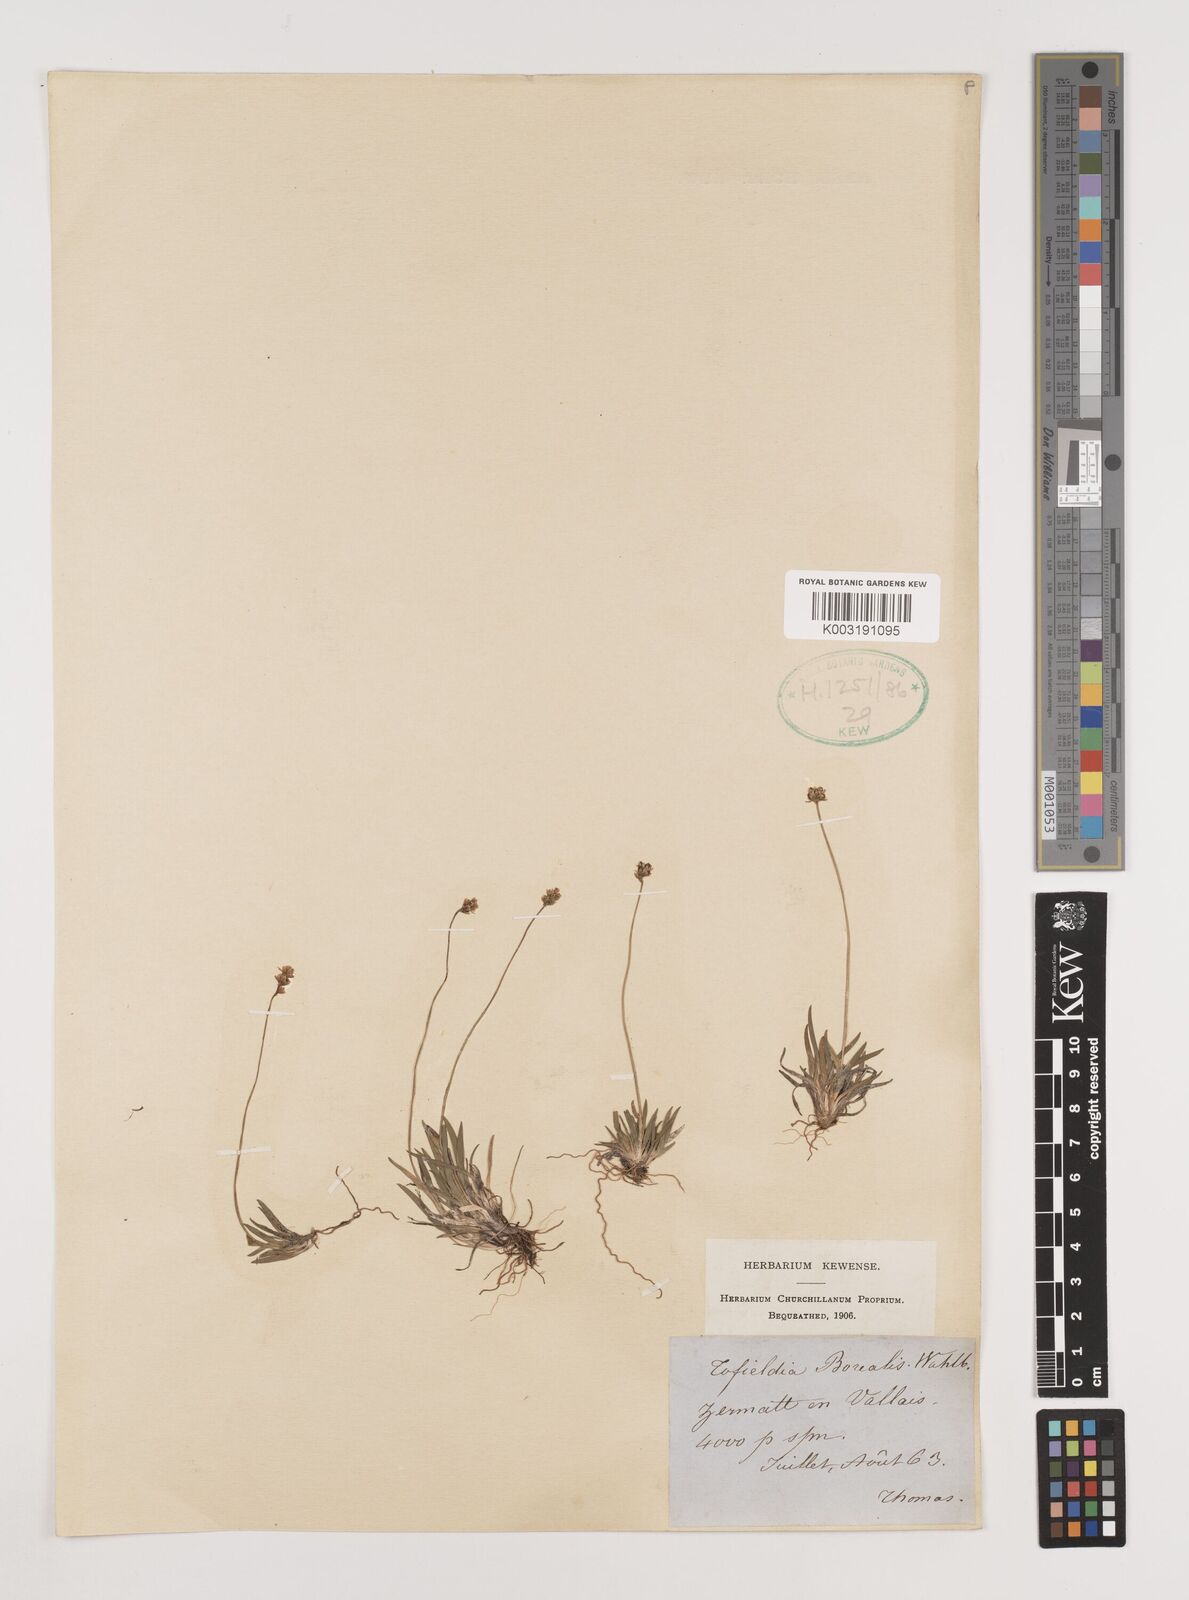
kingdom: Plantae
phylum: Tracheophyta
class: Liliopsida
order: Alismatales
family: Tofieldiaceae
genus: Tofieldia
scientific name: Tofieldia pusilla
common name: Scottish false asphodel
